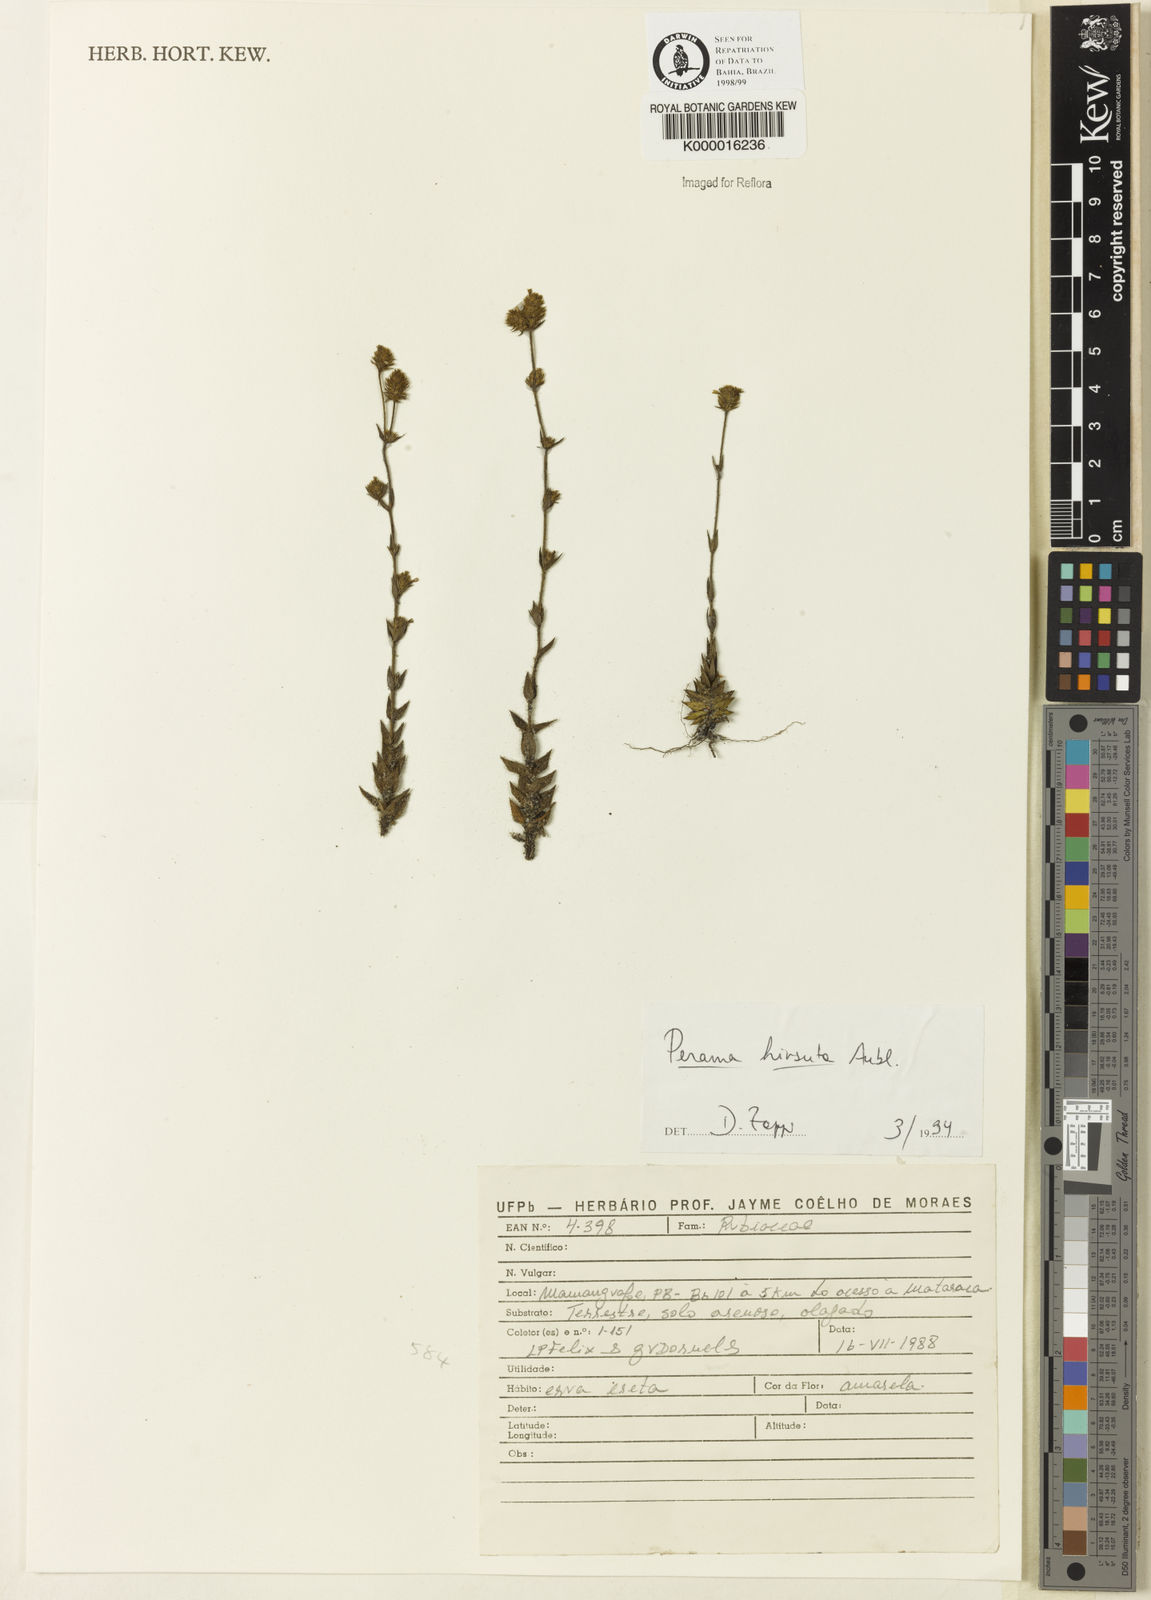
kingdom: Plantae
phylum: Tracheophyta
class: Magnoliopsida
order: Gentianales
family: Rubiaceae
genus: Perama
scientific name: Perama hirsuta
